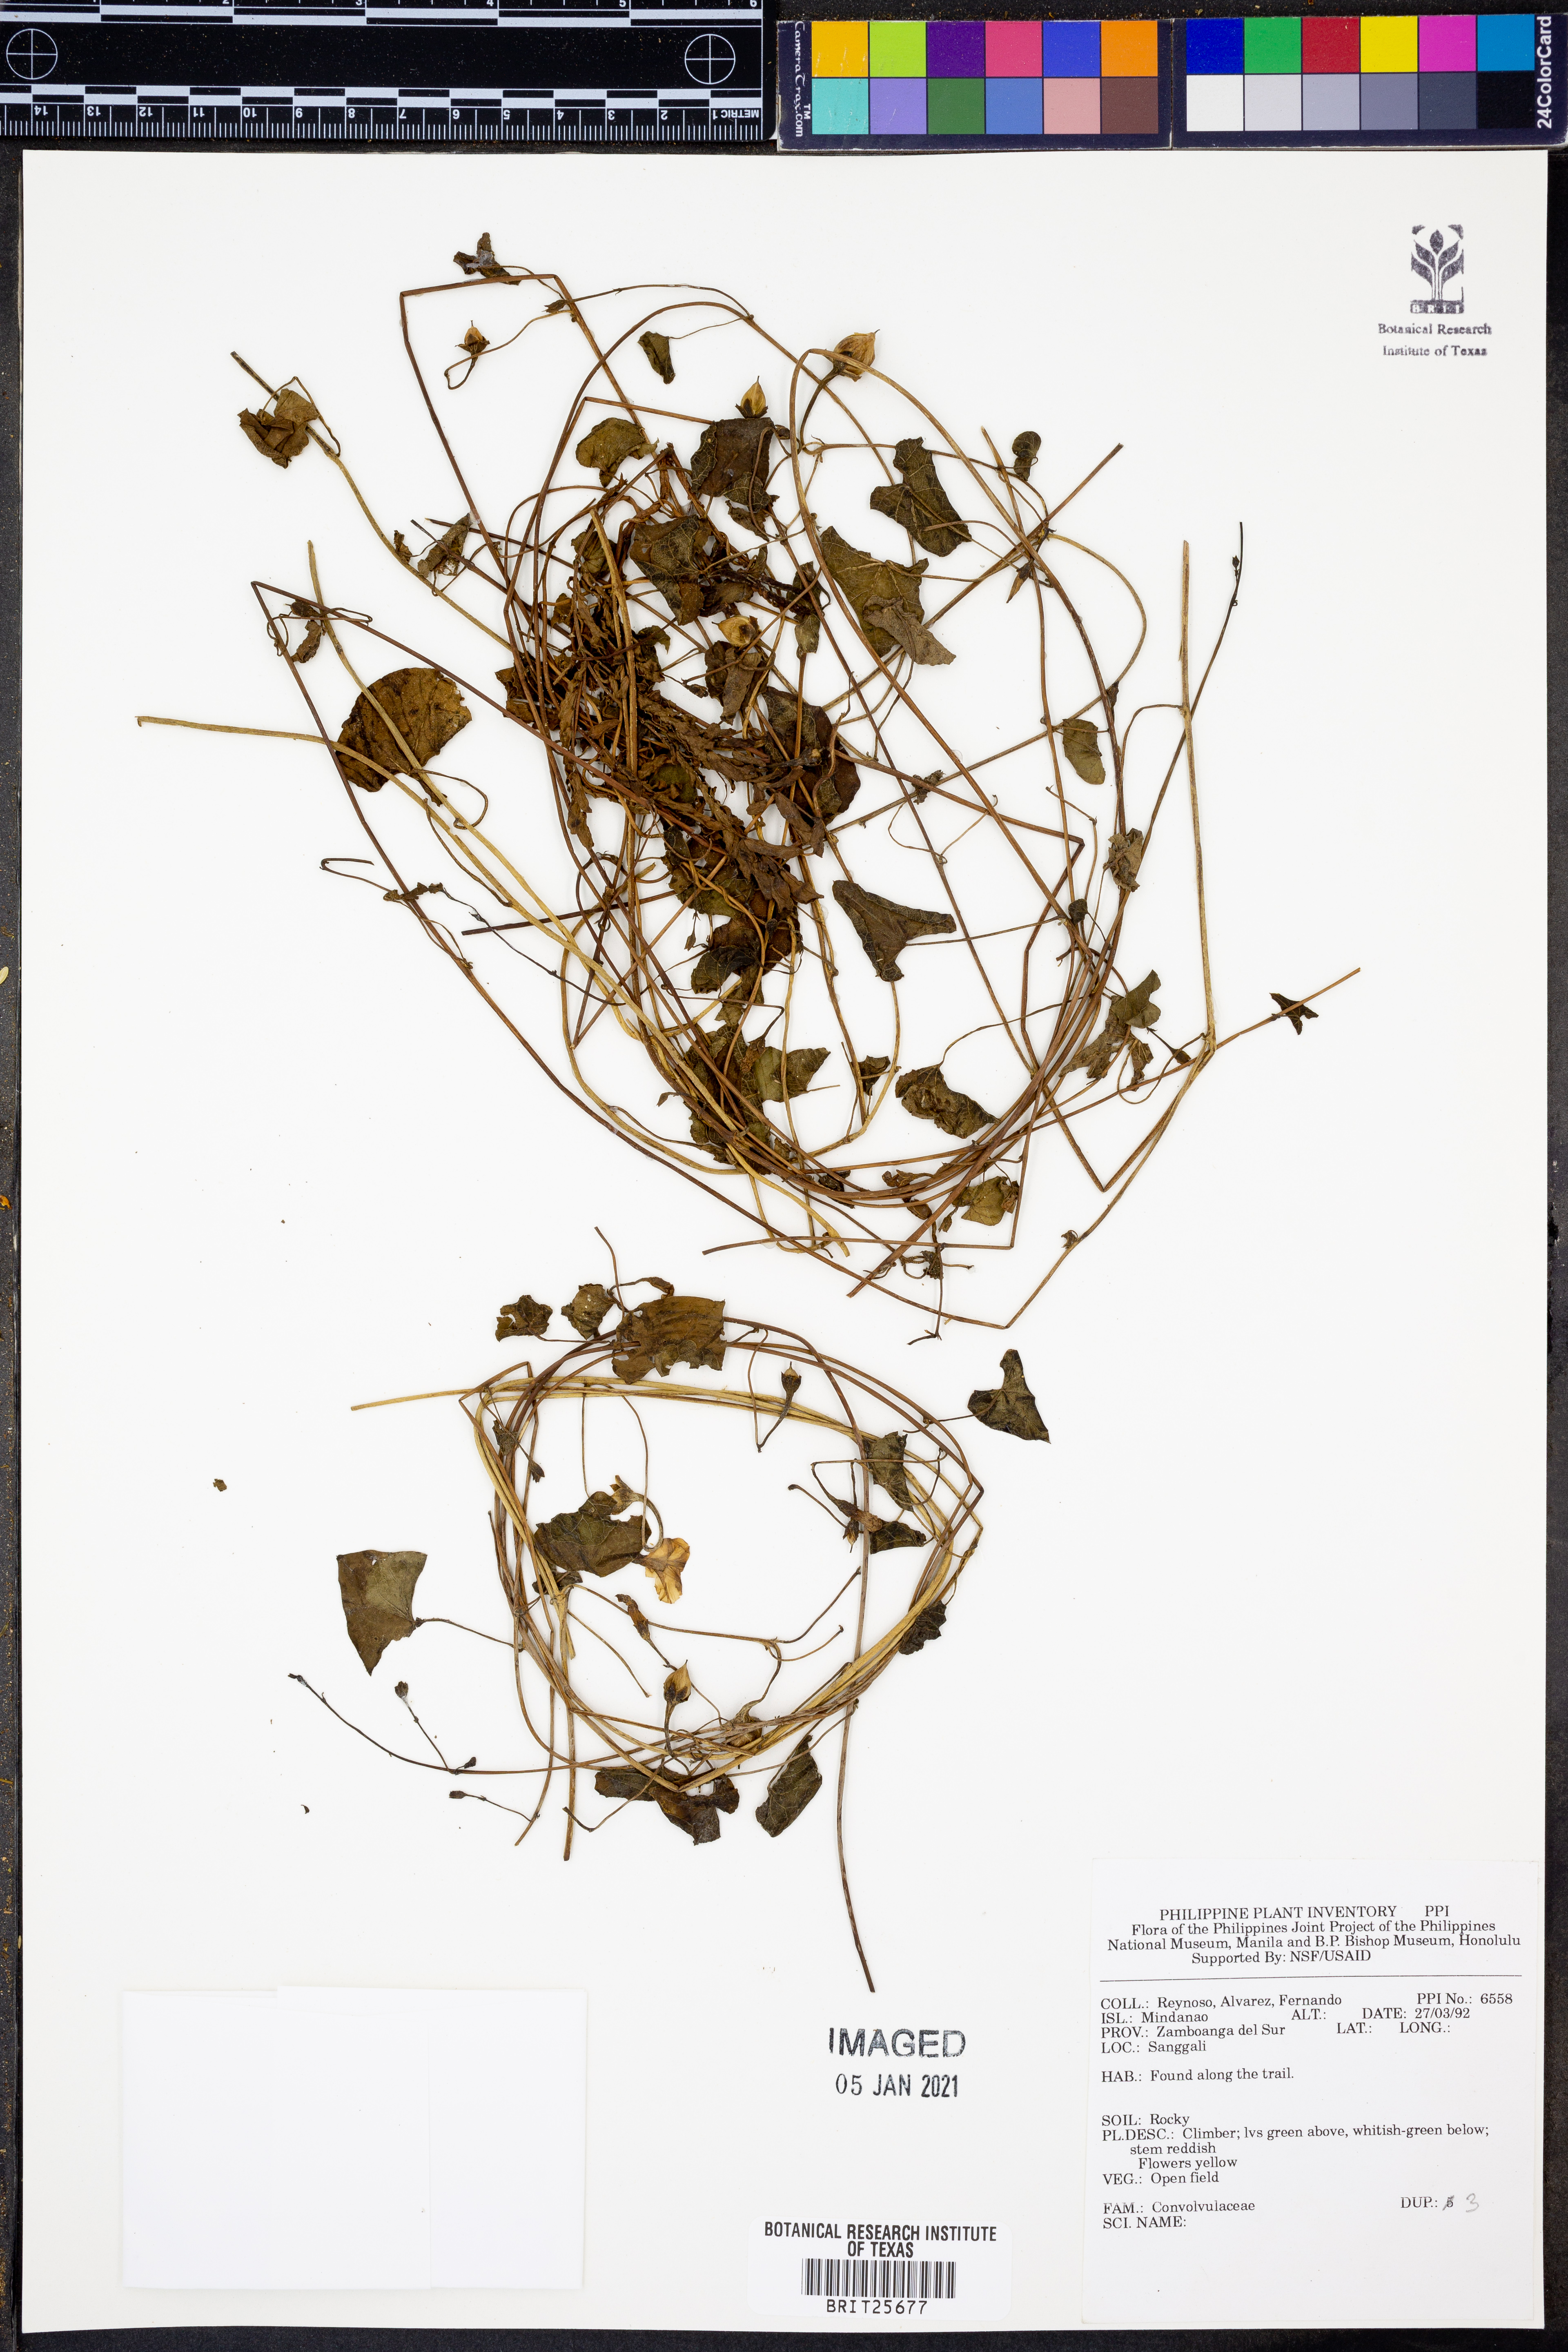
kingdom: Plantae
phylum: Tracheophyta
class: Magnoliopsida
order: Solanales
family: Convolvulaceae
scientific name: Convolvulaceae
